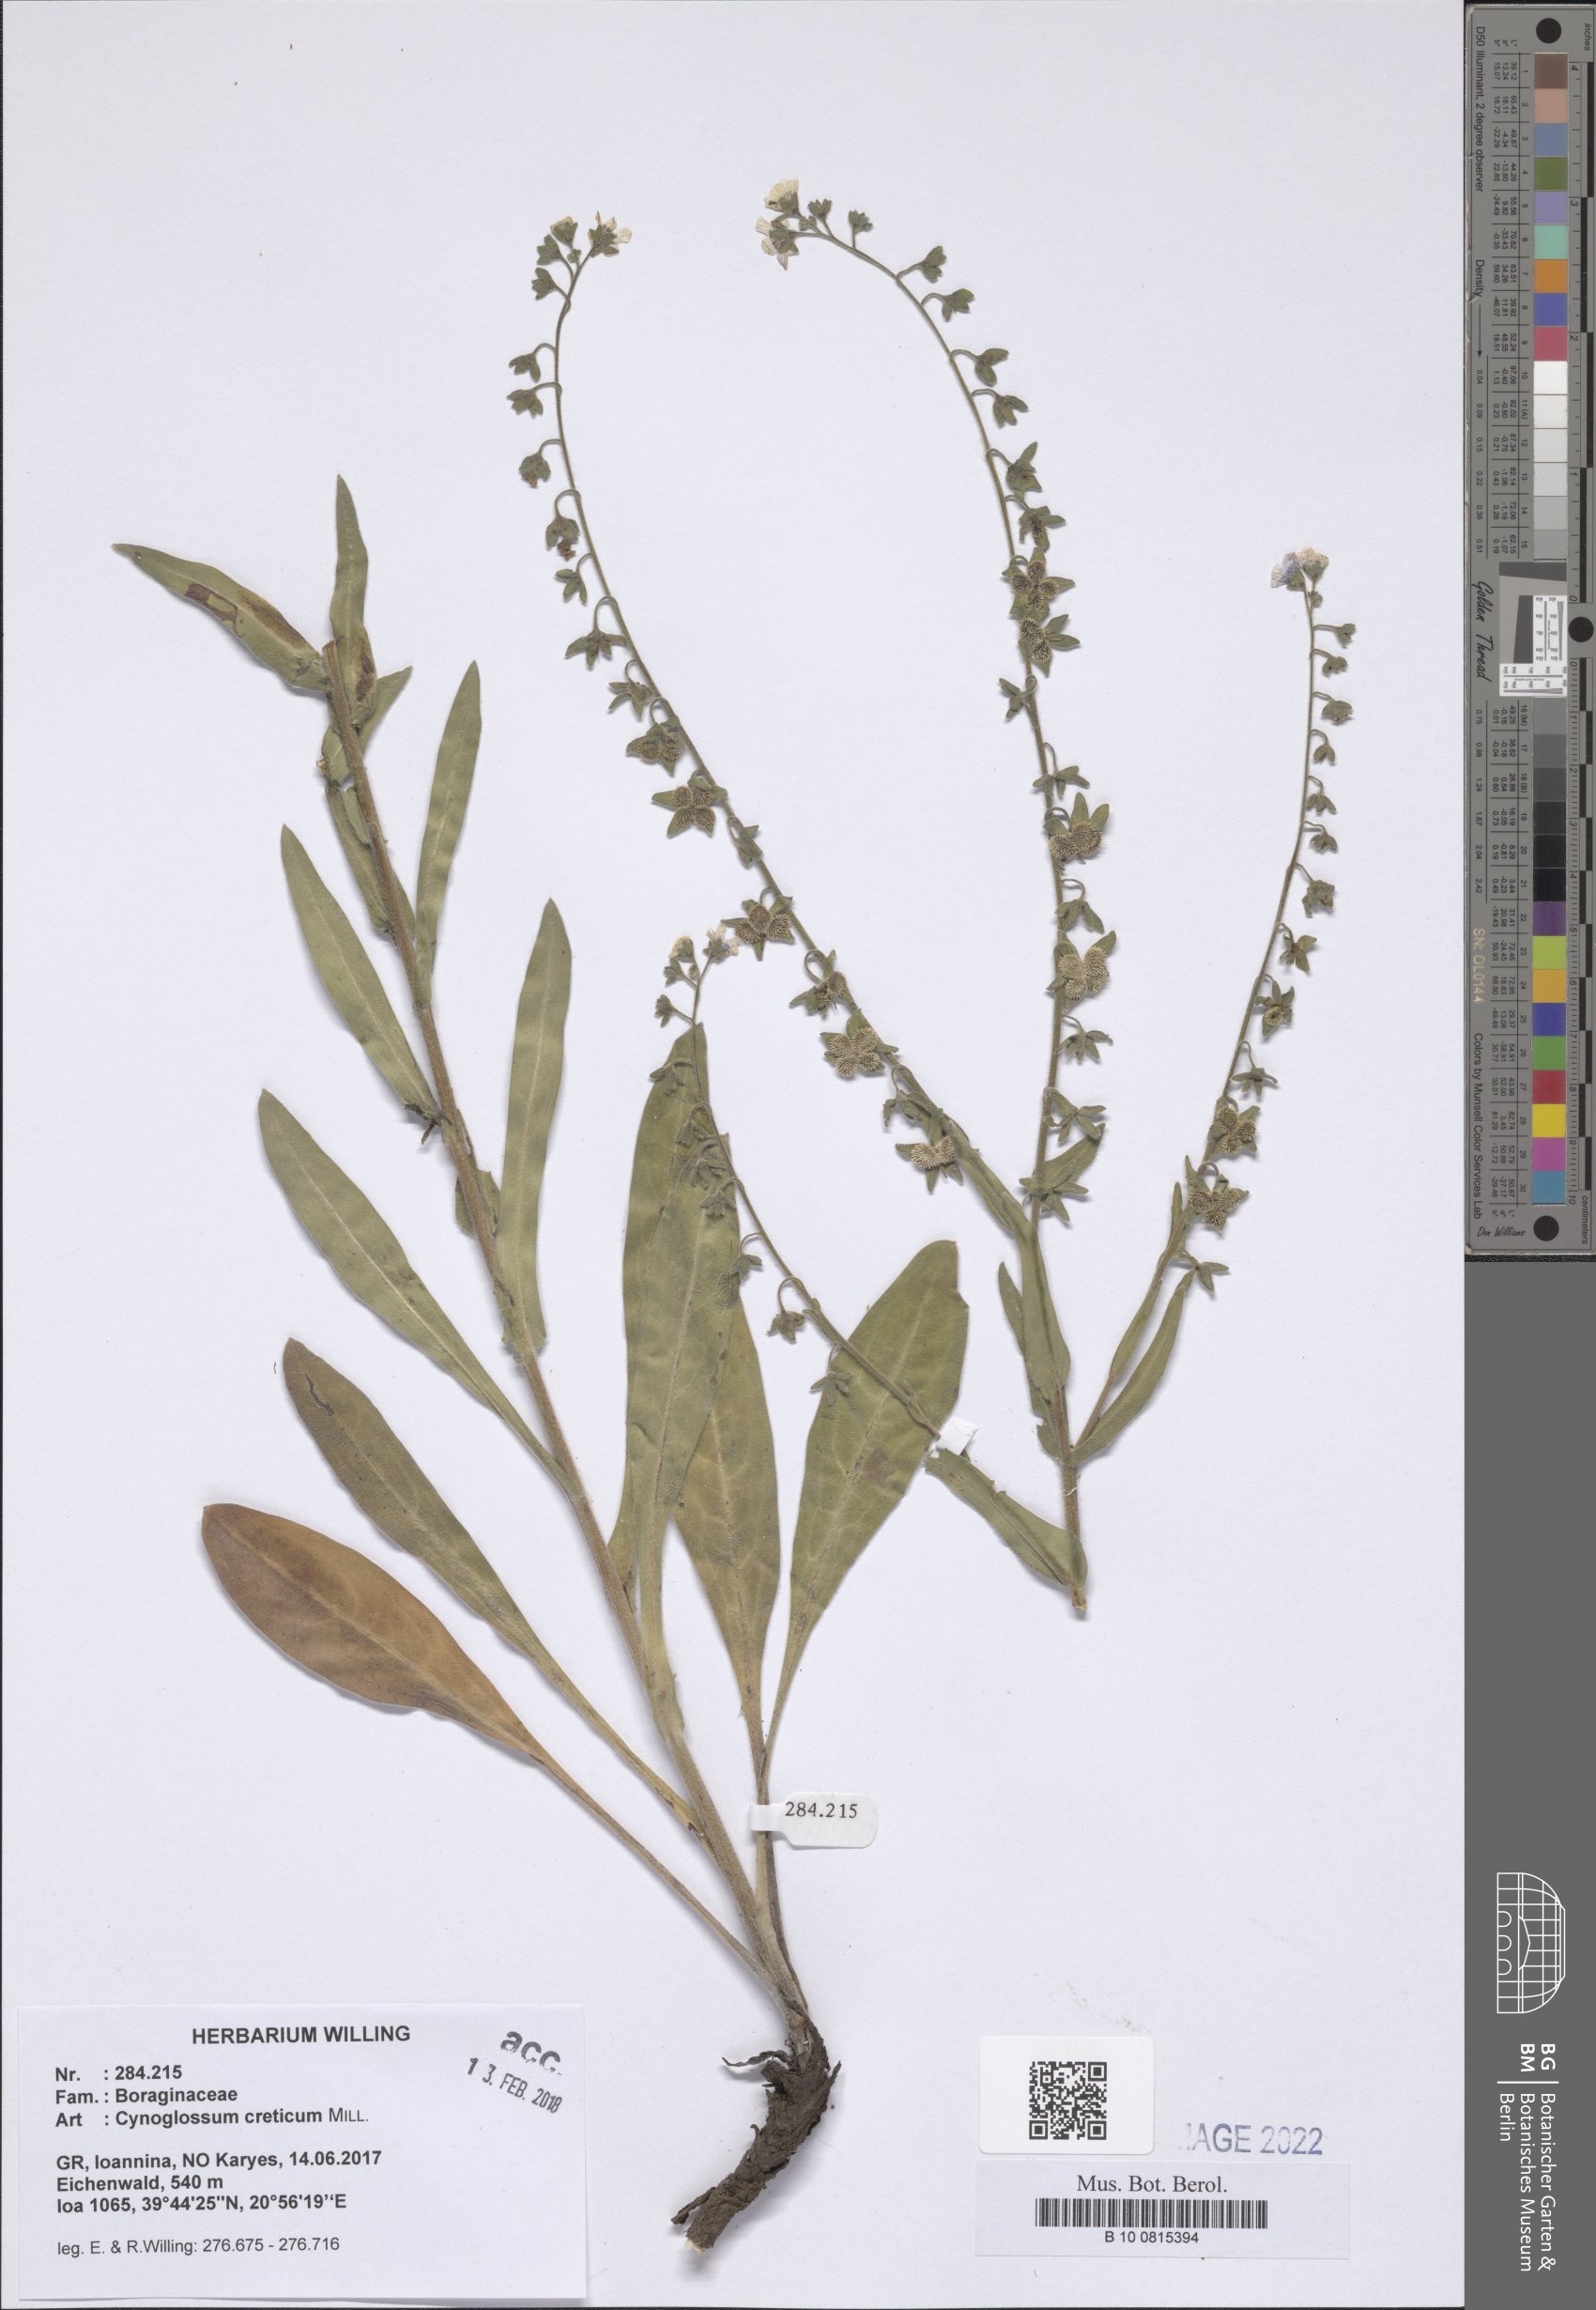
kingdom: Plantae
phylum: Tracheophyta
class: Magnoliopsida
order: Boraginales
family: Boraginaceae
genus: Cynoglossum
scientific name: Cynoglossum creticum
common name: Blue hound's tongue
